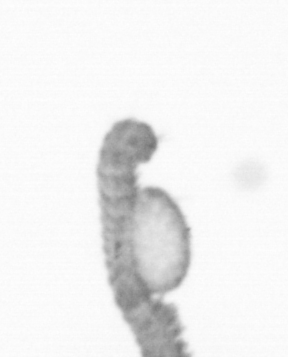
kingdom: Animalia
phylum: Annelida
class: Polychaeta
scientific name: Polychaeta
